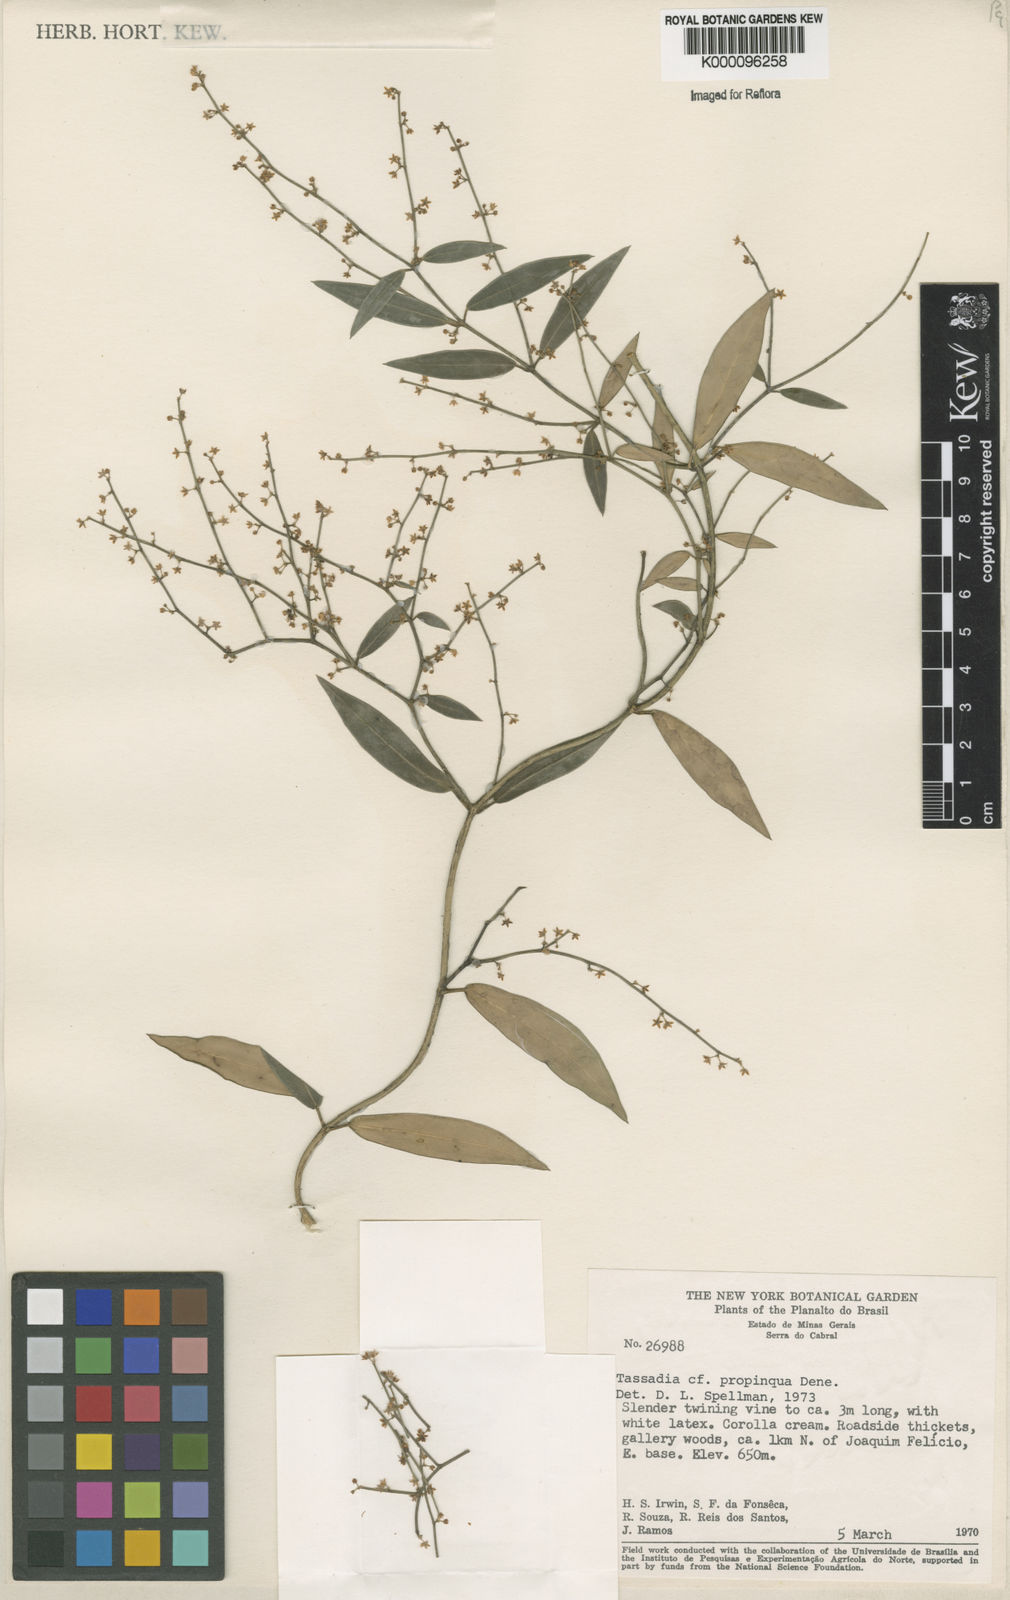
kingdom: Plantae
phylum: Tracheophyta
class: Magnoliopsida
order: Gentianales
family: Apocynaceae
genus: Tassadia
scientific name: Tassadia propinqua
